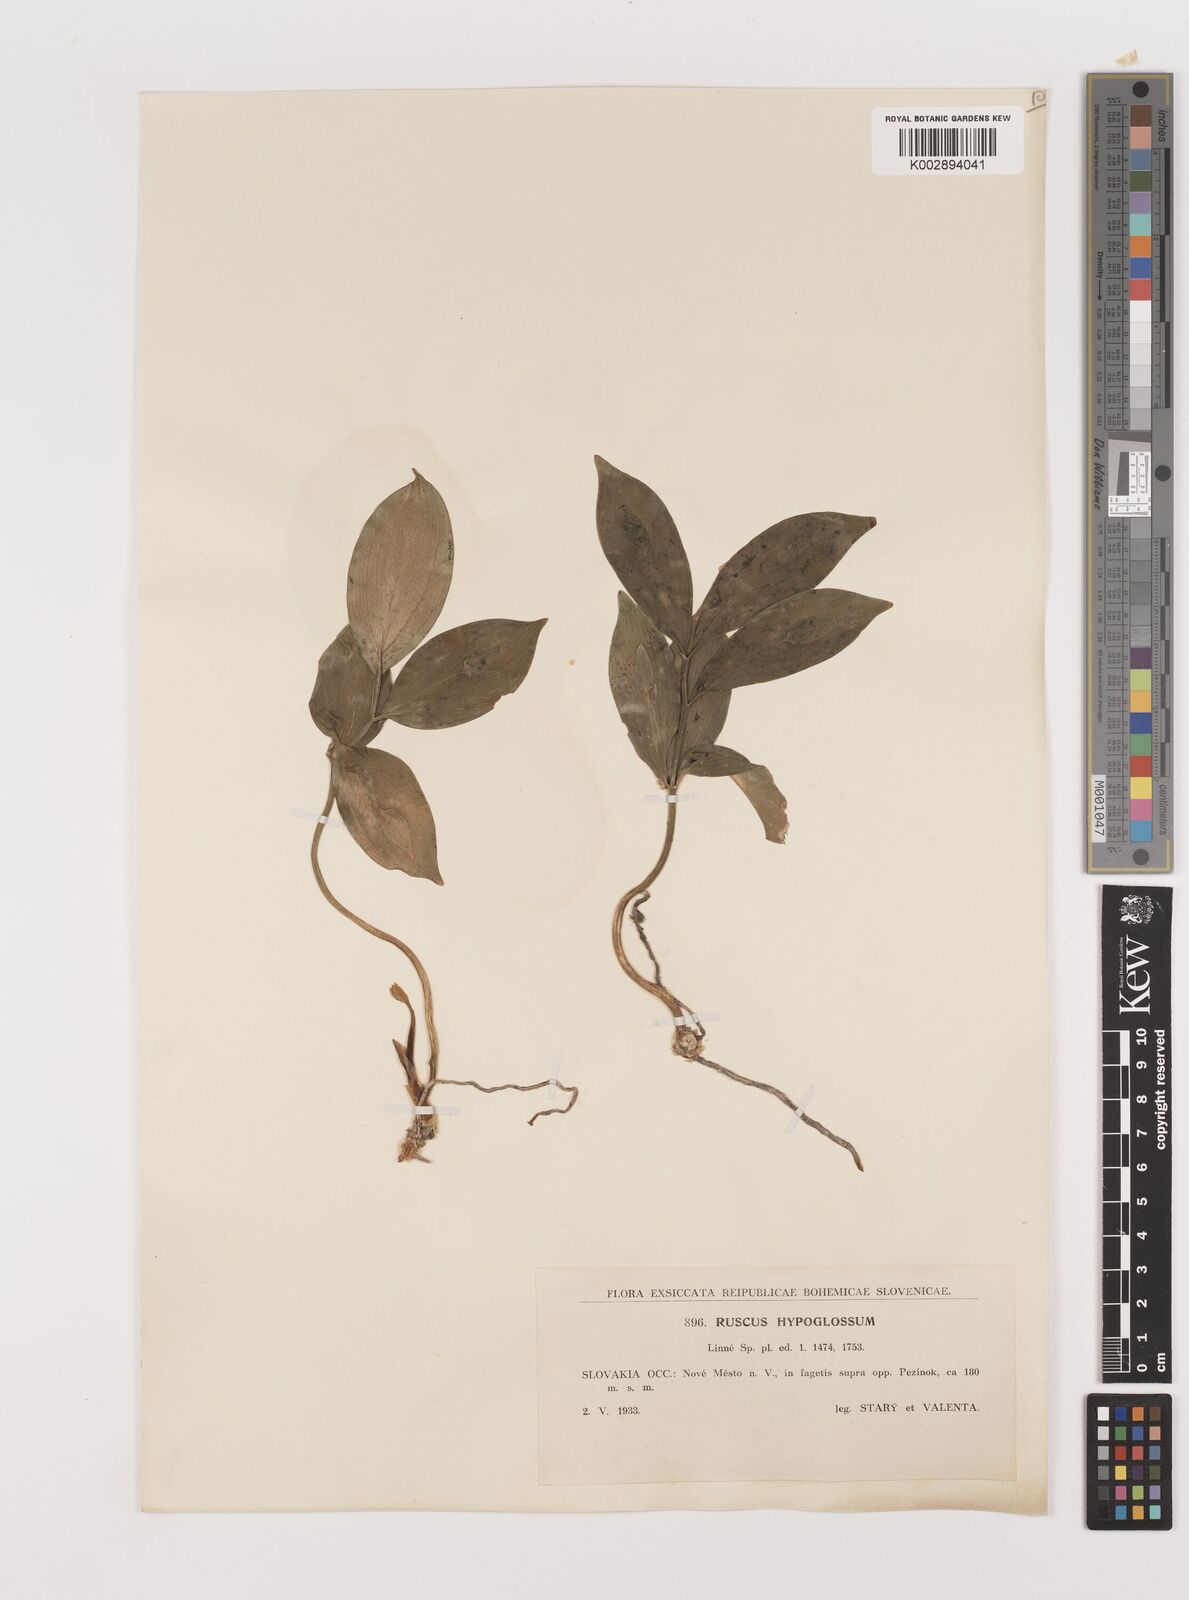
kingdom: Plantae
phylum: Tracheophyta
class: Liliopsida
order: Asparagales
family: Asparagaceae
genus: Ruscus
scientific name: Ruscus hypoglossum
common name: Spineless butcher's-broom
